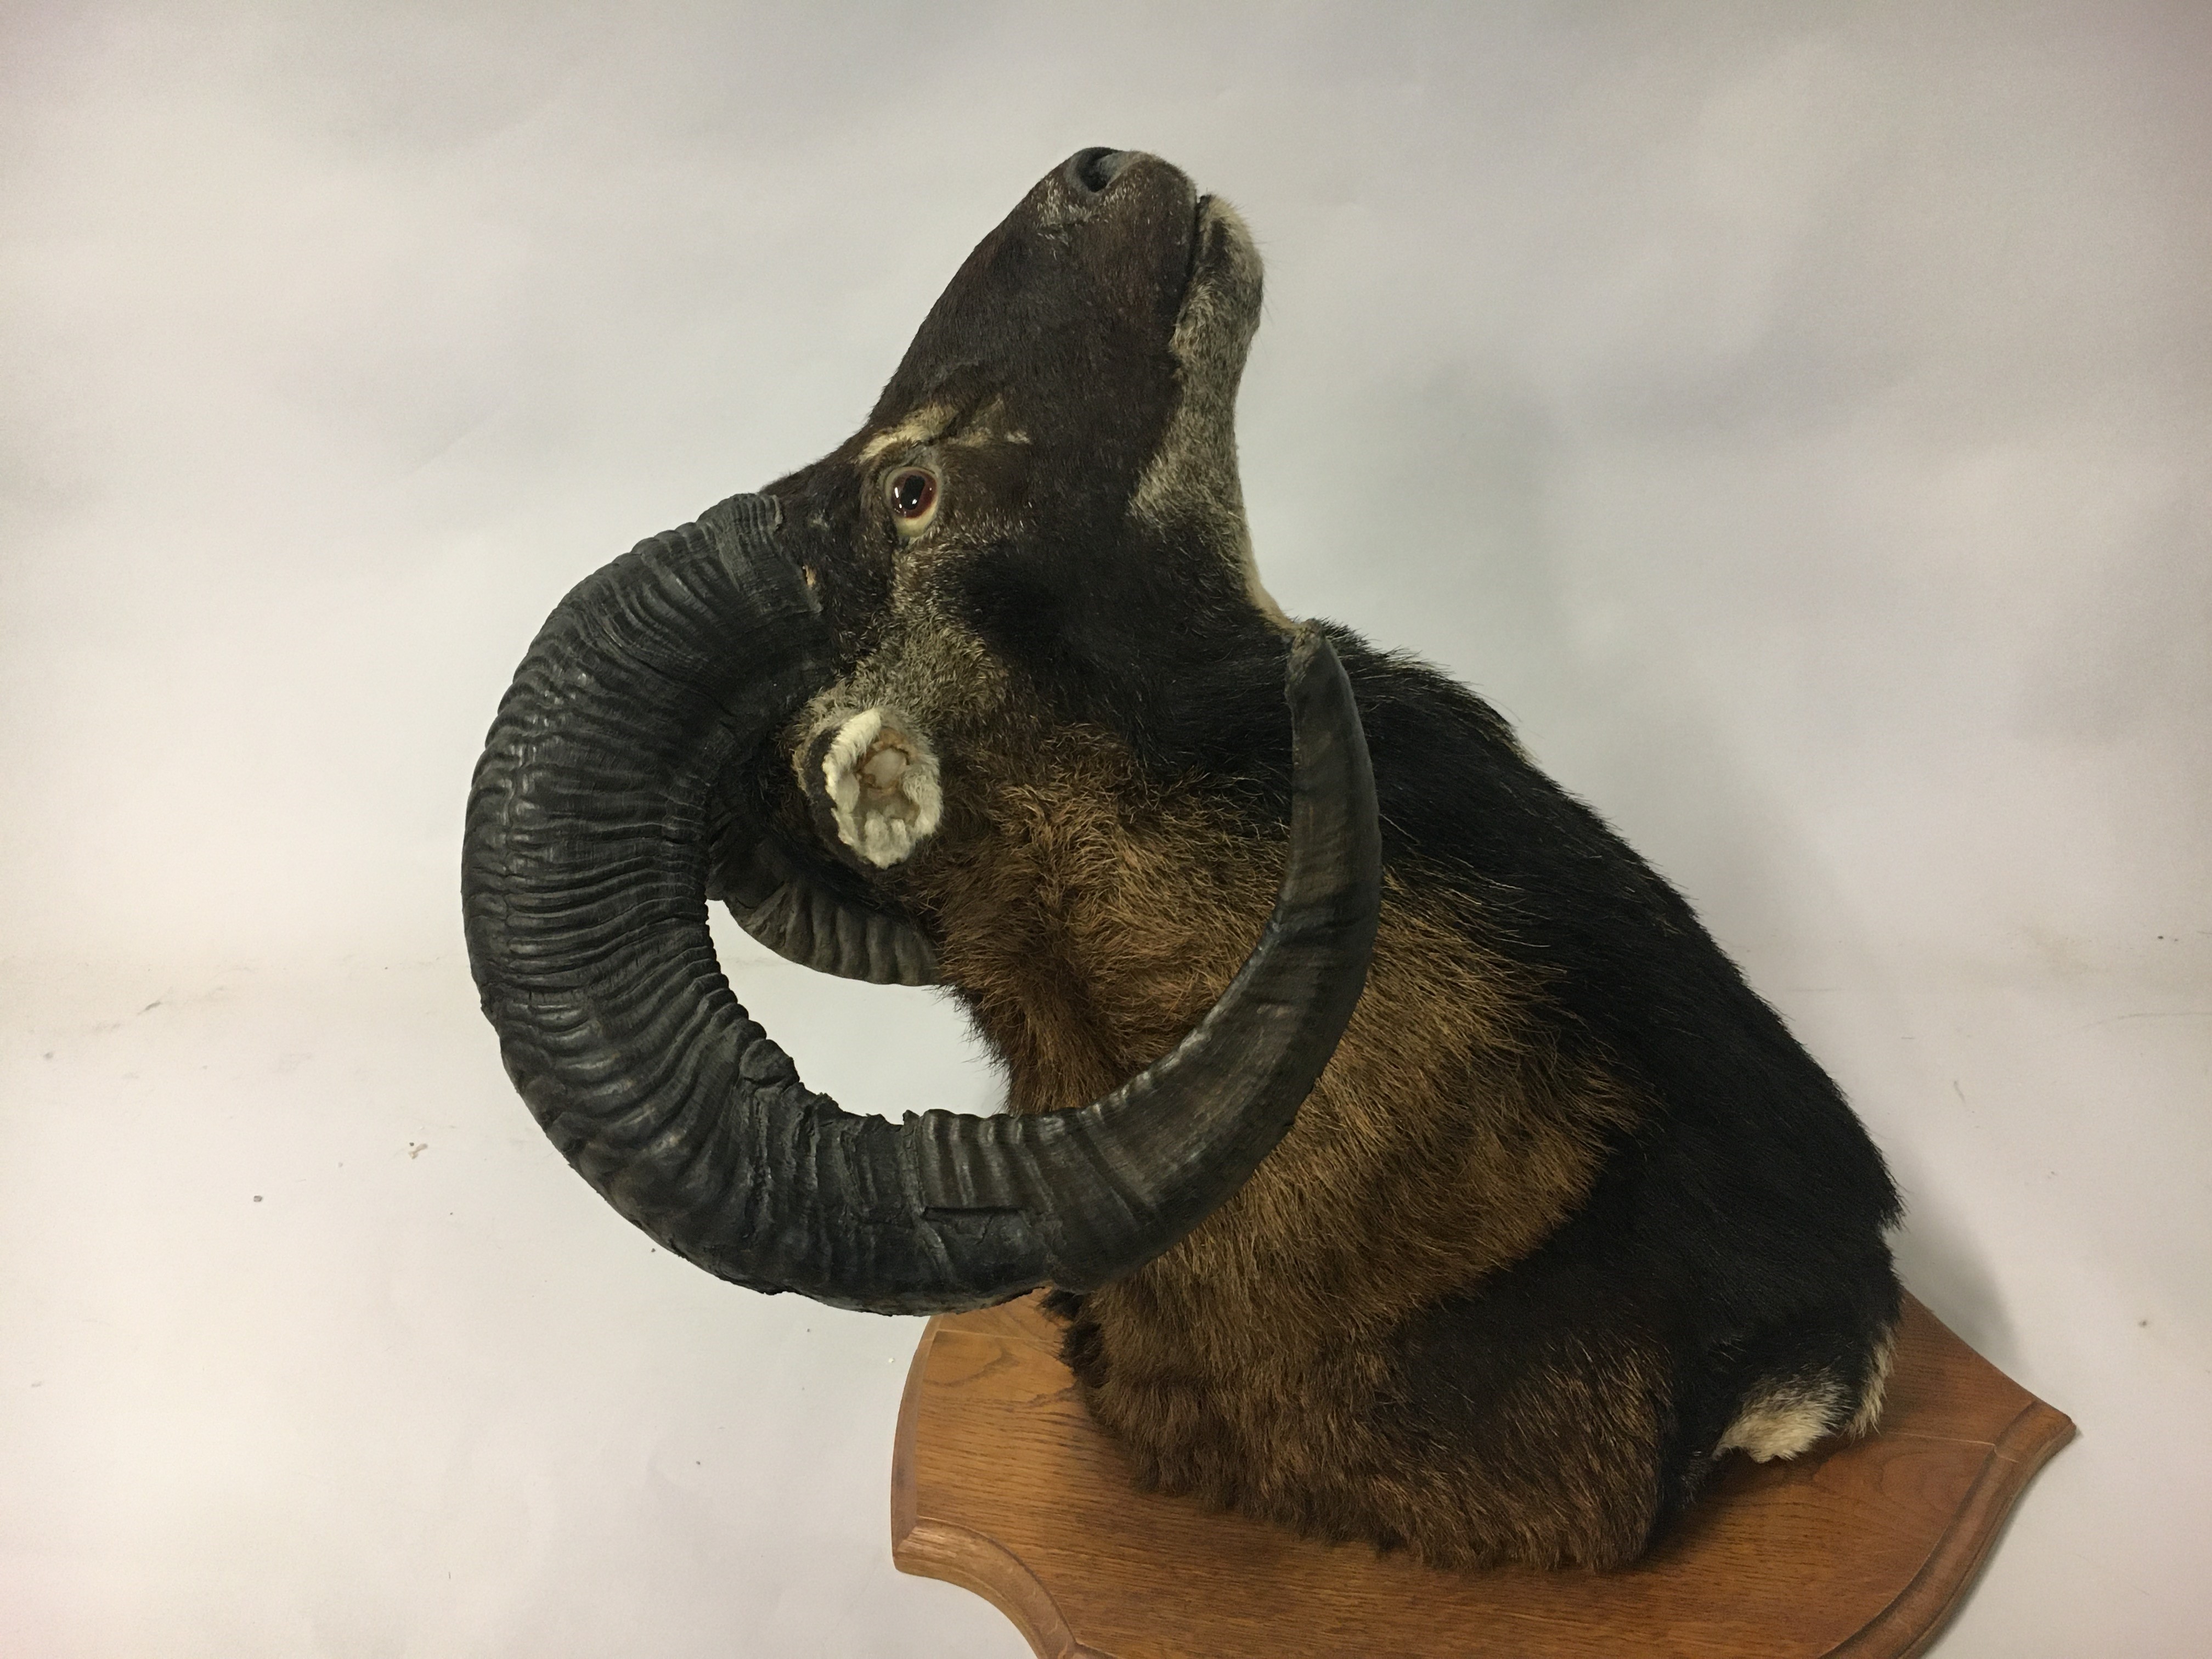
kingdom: Animalia
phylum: Chordata
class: Mammalia
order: Artiodactyla
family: Bovidae
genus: Ovis
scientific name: Ovis aries
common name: Domestic sheep
